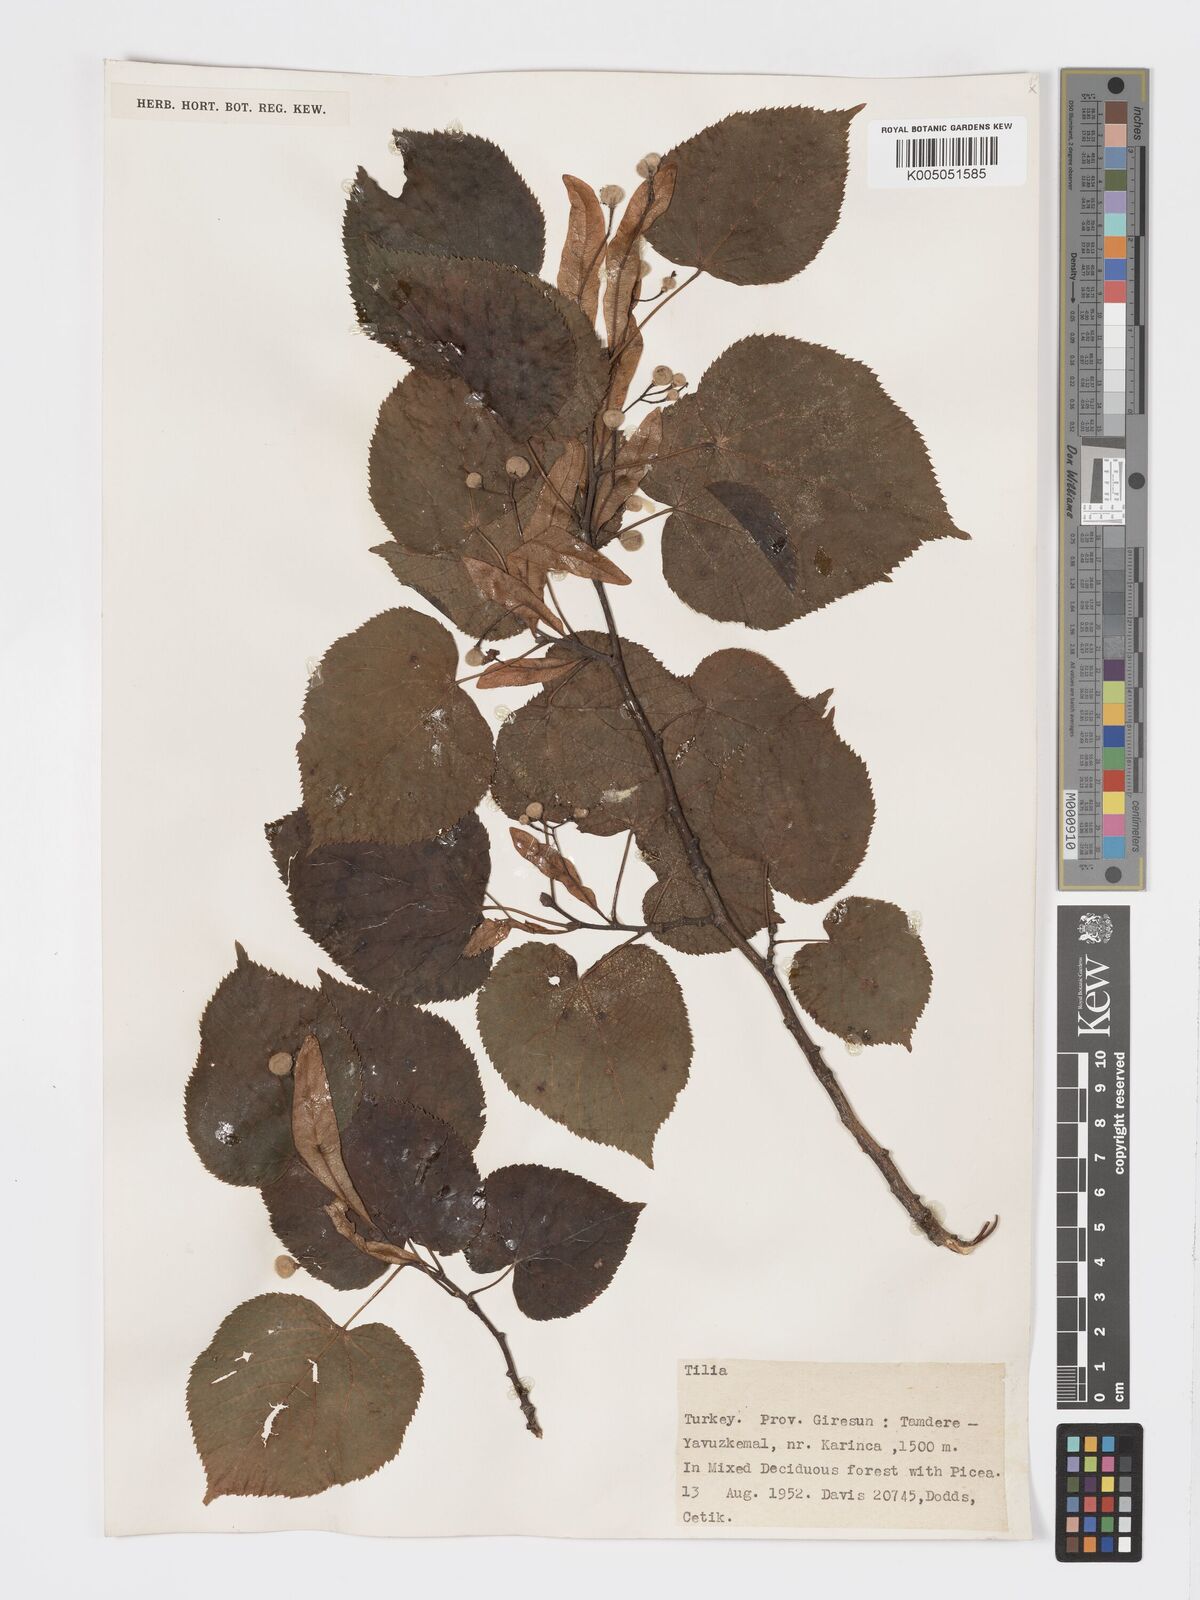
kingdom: Plantae
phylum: Tracheophyta
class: Magnoliopsida
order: Malvales
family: Malvaceae
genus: Tilia
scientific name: Tilia
